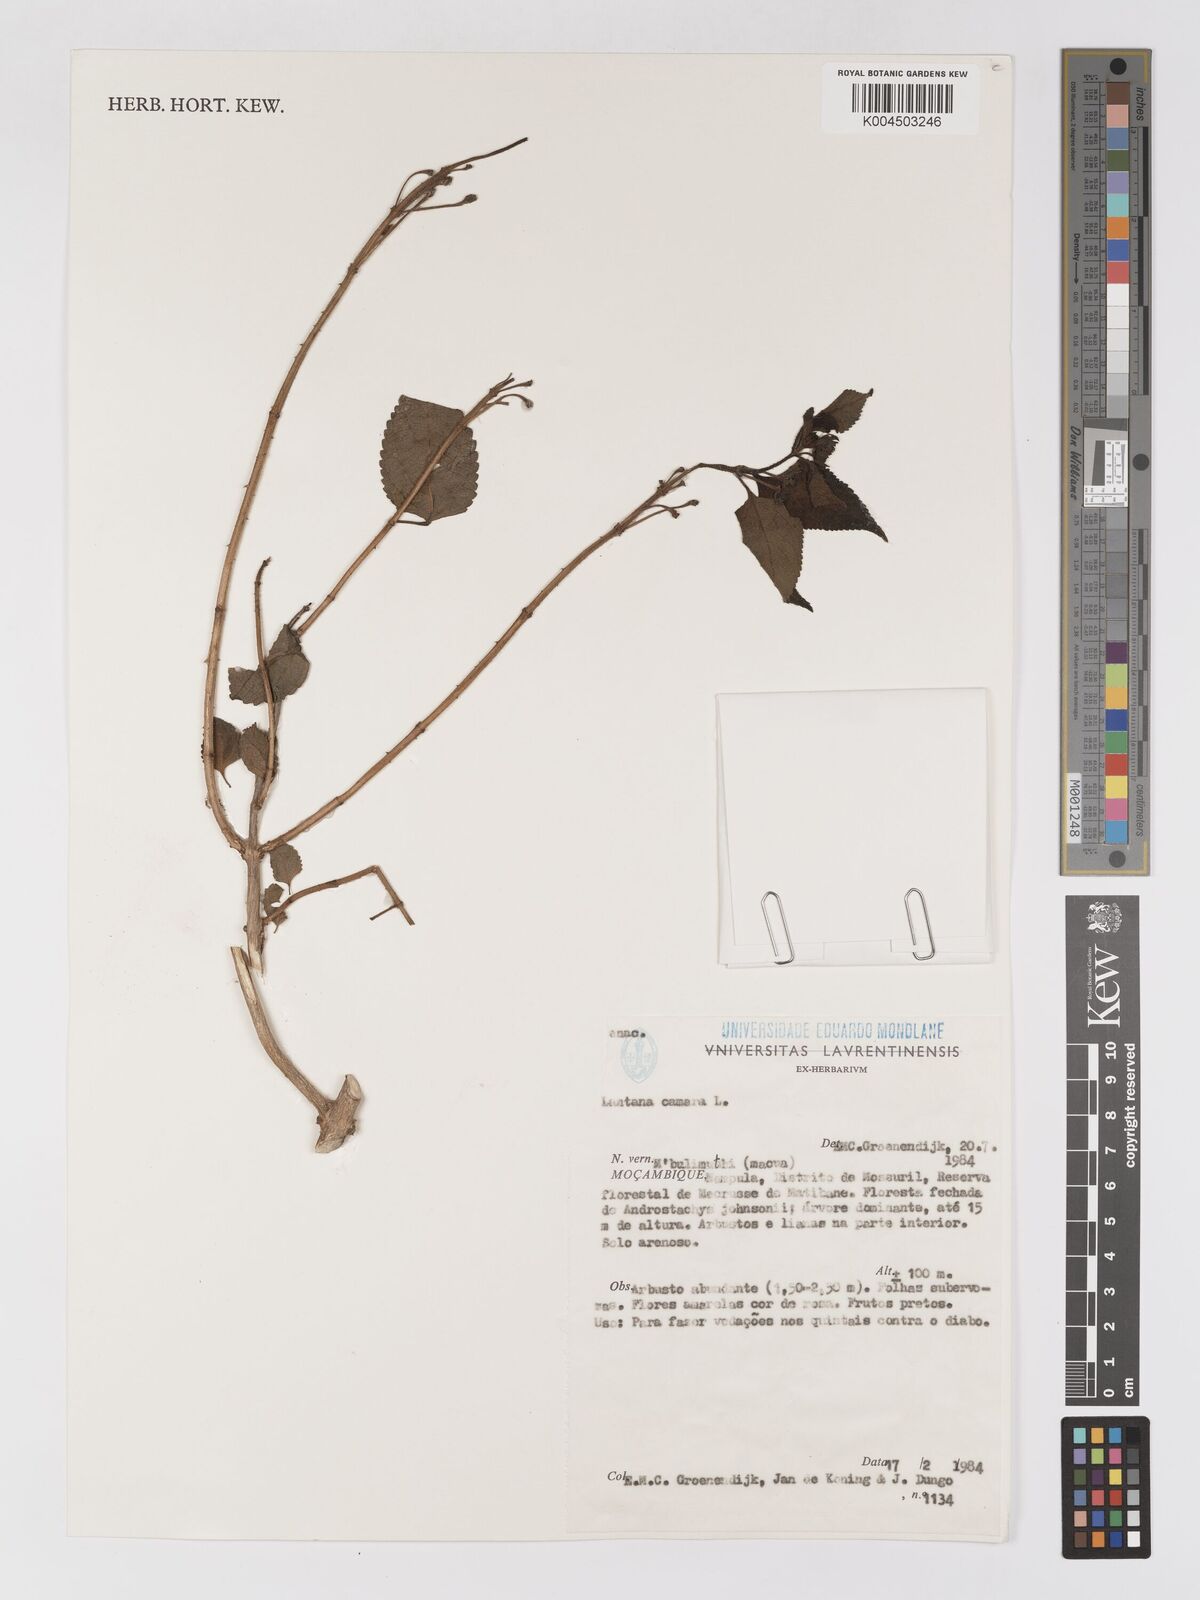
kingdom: Plantae
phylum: Tracheophyta
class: Magnoliopsida
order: Lamiales
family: Verbenaceae
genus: Lantana
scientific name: Lantana camara
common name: Lantana
